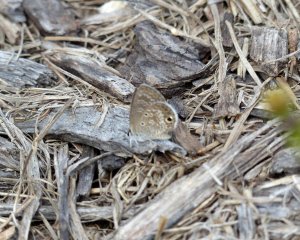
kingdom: Animalia
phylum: Arthropoda
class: Insecta
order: Lepidoptera
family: Lycaenidae
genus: Hemiargus
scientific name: Hemiargus ceraunus
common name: Ceraunus Blue
